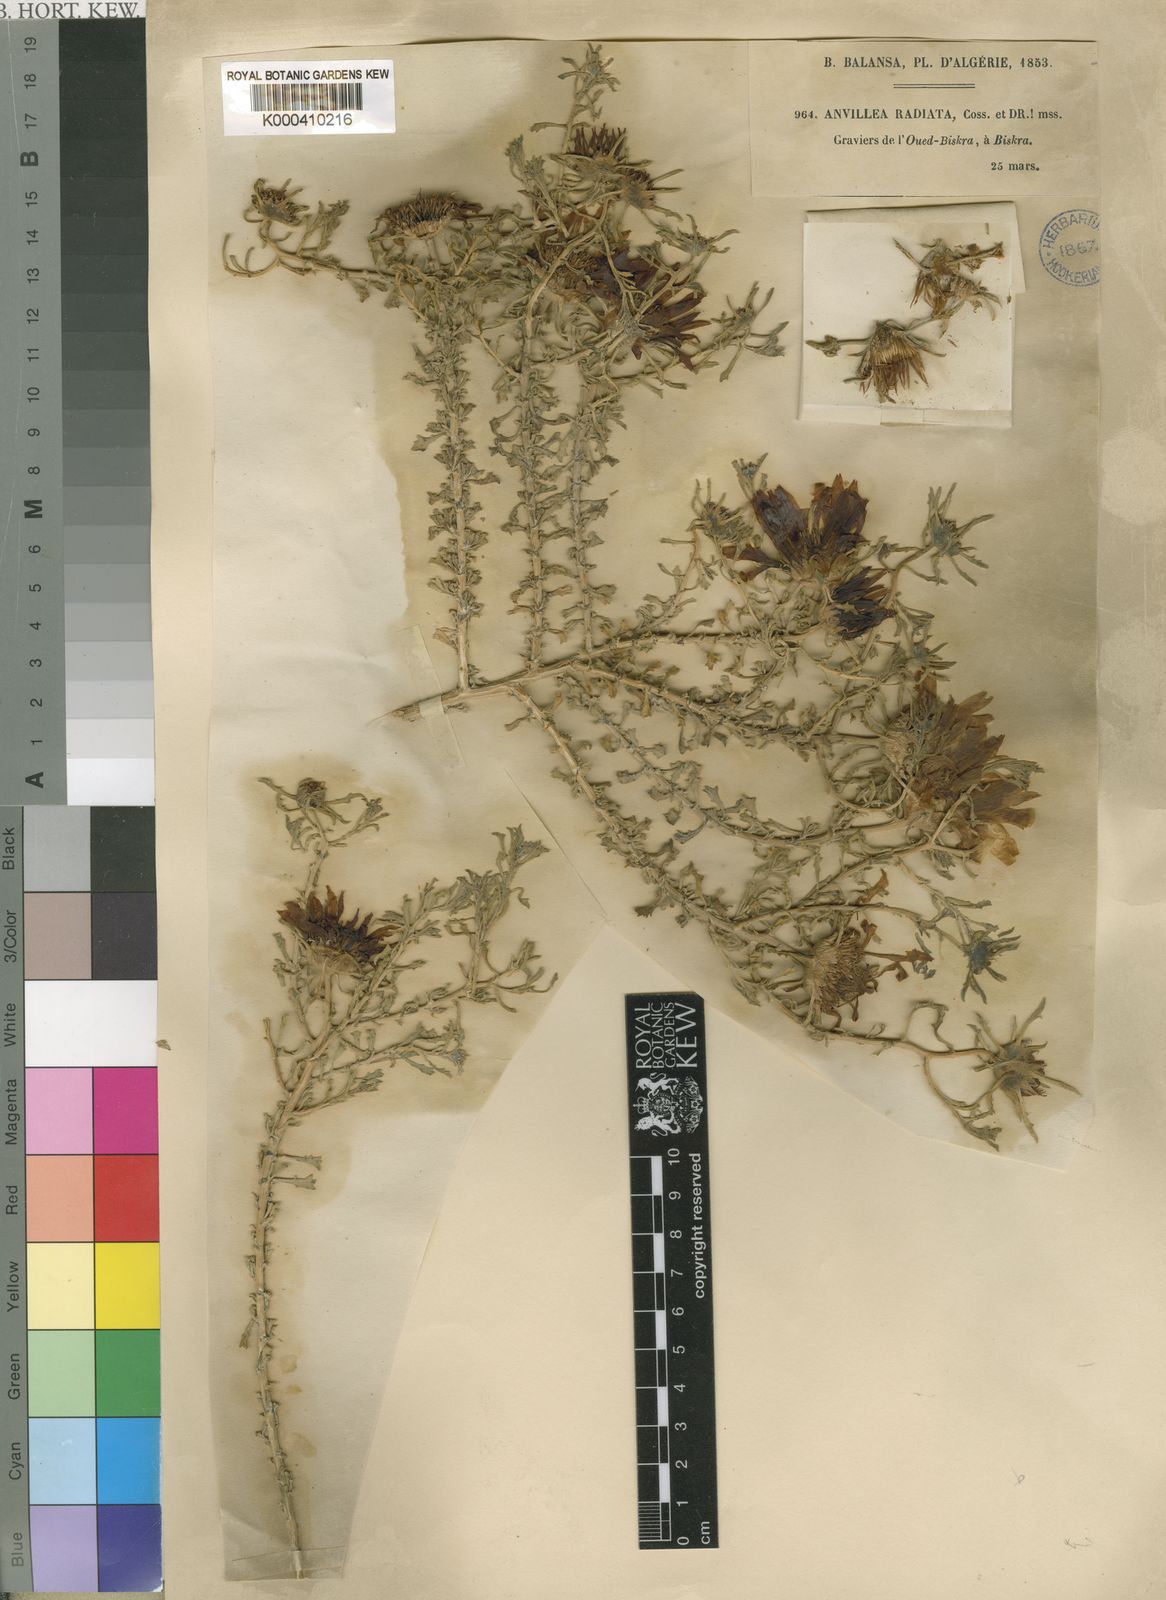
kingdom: Plantae
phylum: Tracheophyta
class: Magnoliopsida
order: Asterales
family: Asteraceae
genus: Anvillea
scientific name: Anvillea garcinii
